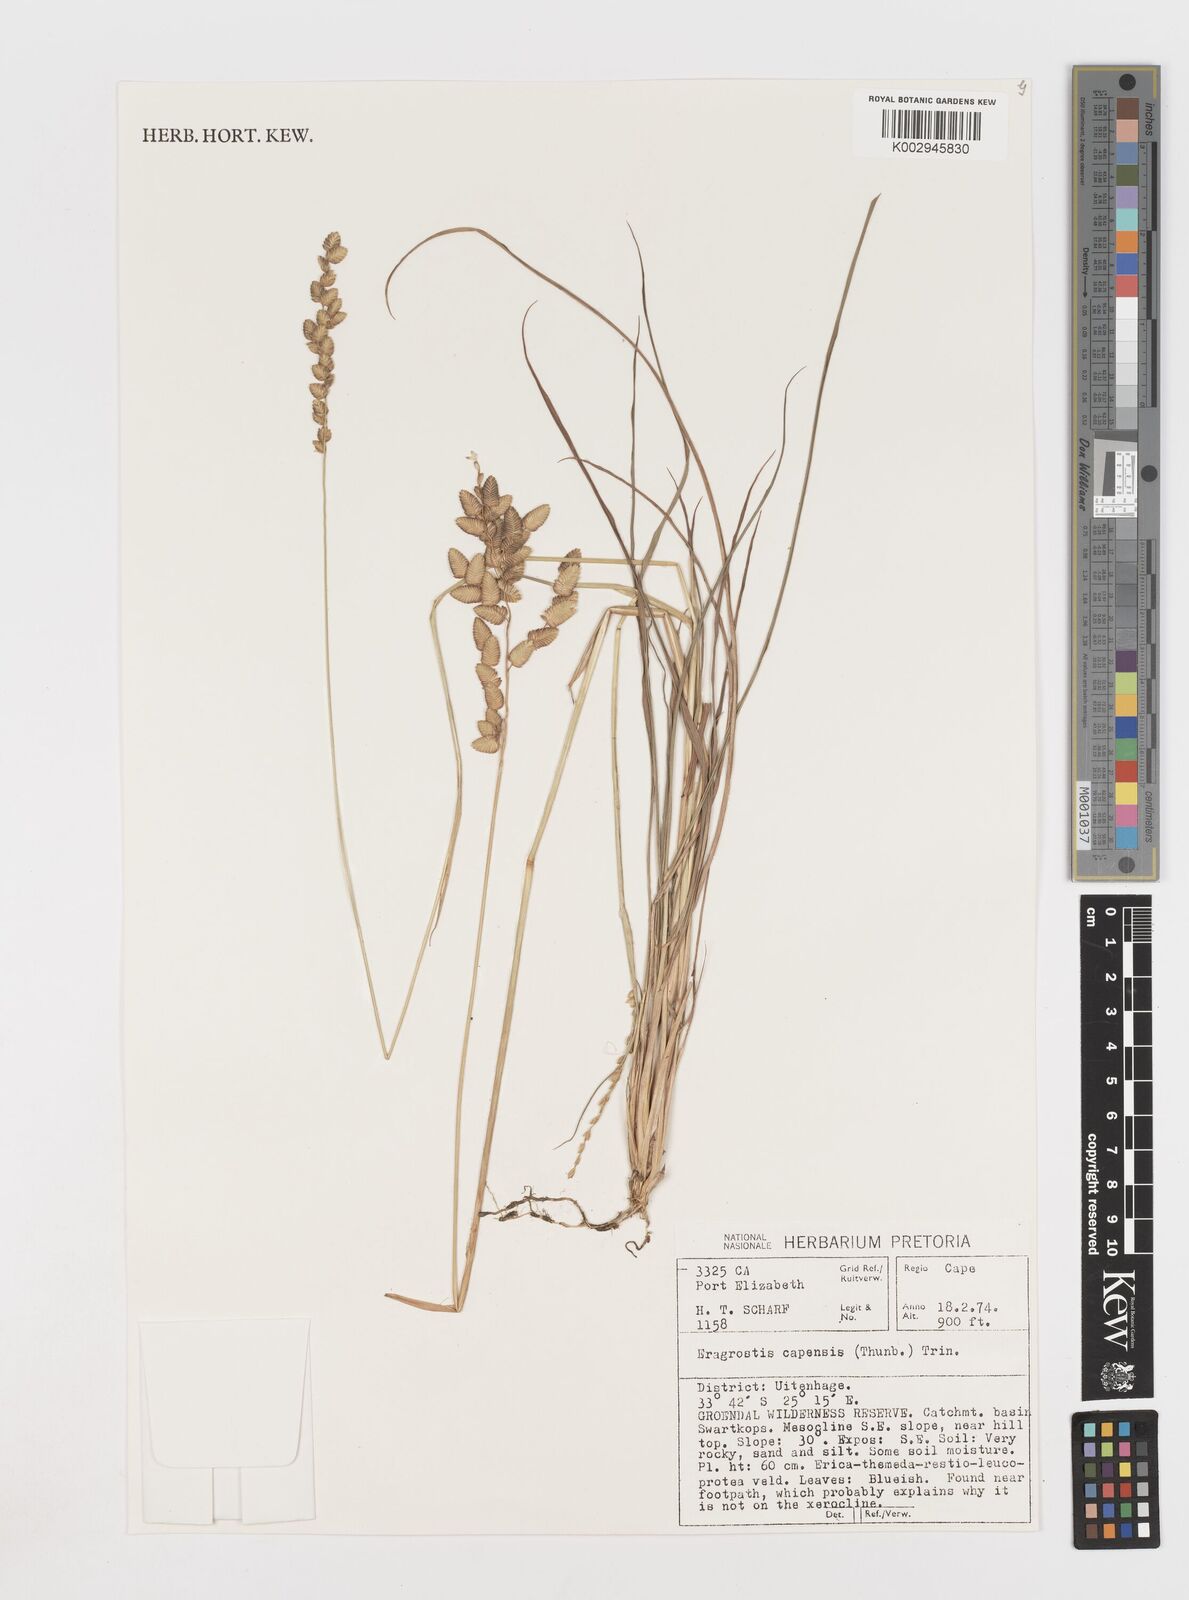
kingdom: Plantae
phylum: Tracheophyta
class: Liliopsida
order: Poales
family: Poaceae
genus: Eragrostis
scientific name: Eragrostis capensis
